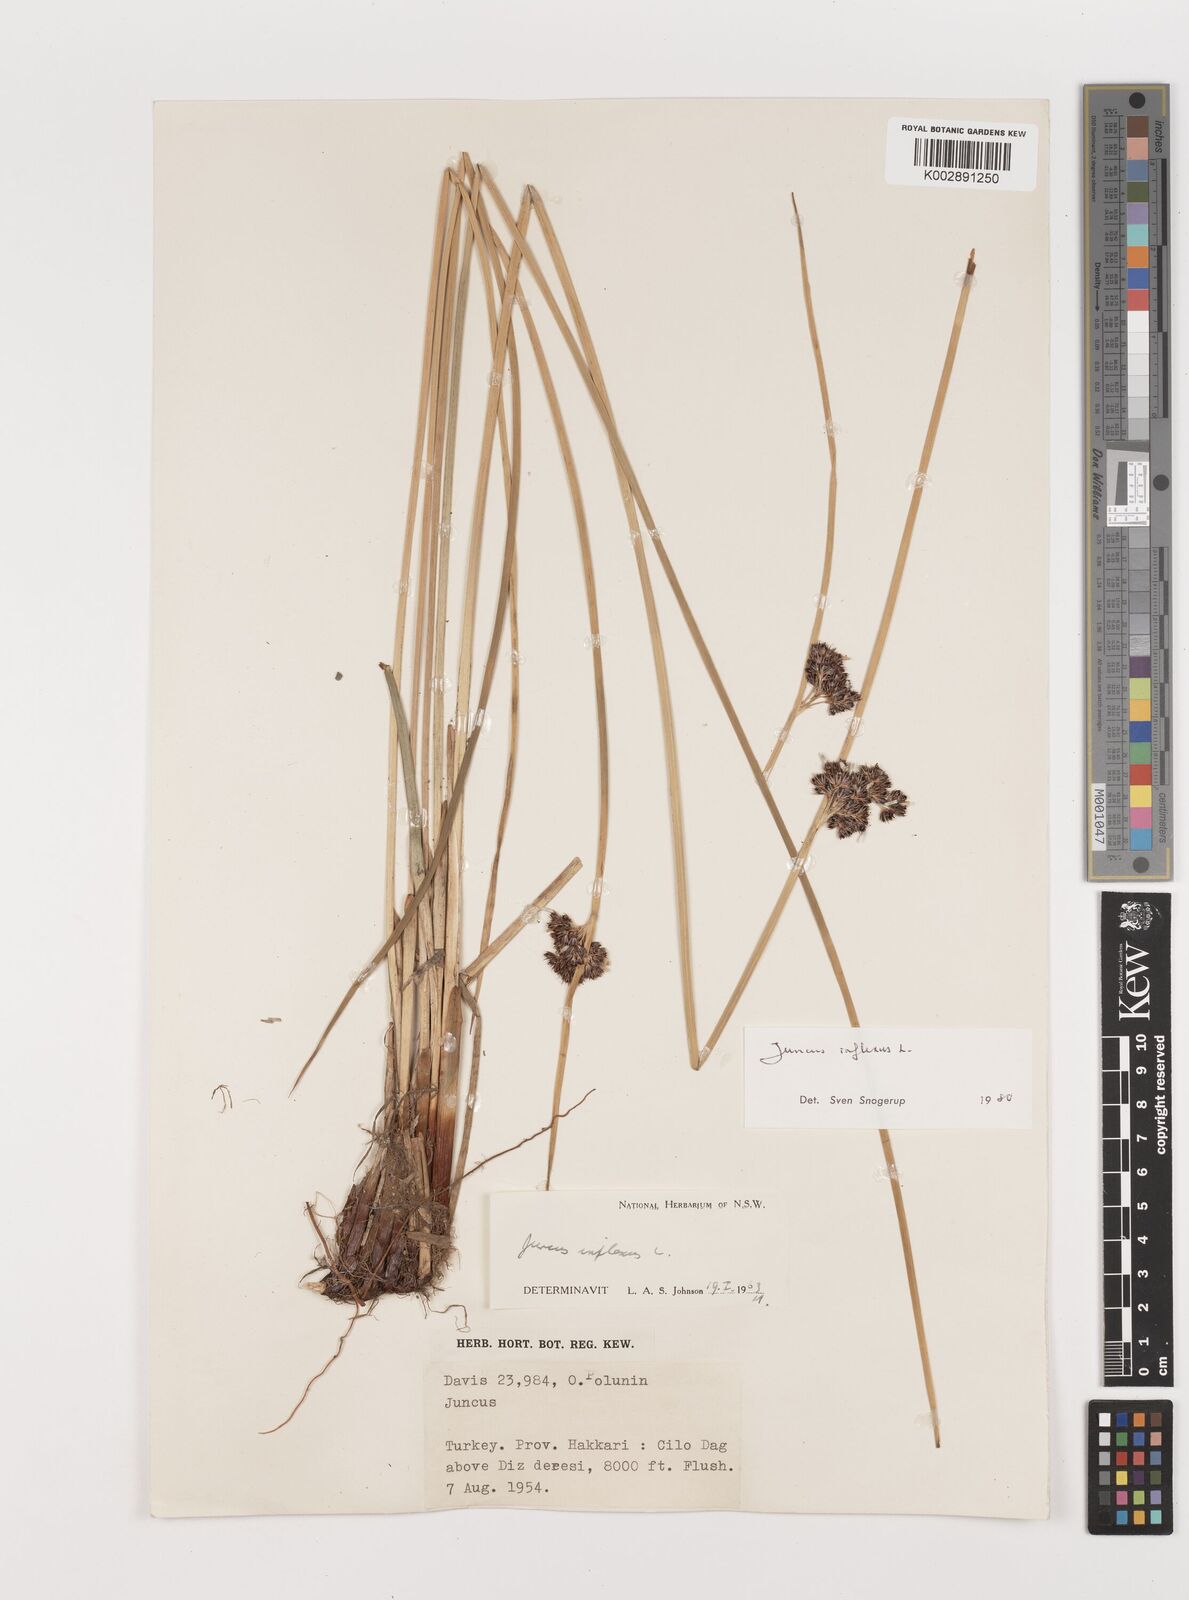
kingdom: Plantae
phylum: Tracheophyta
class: Liliopsida
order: Poales
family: Juncaceae
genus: Juncus
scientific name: Juncus inflexus
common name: Hard rush
